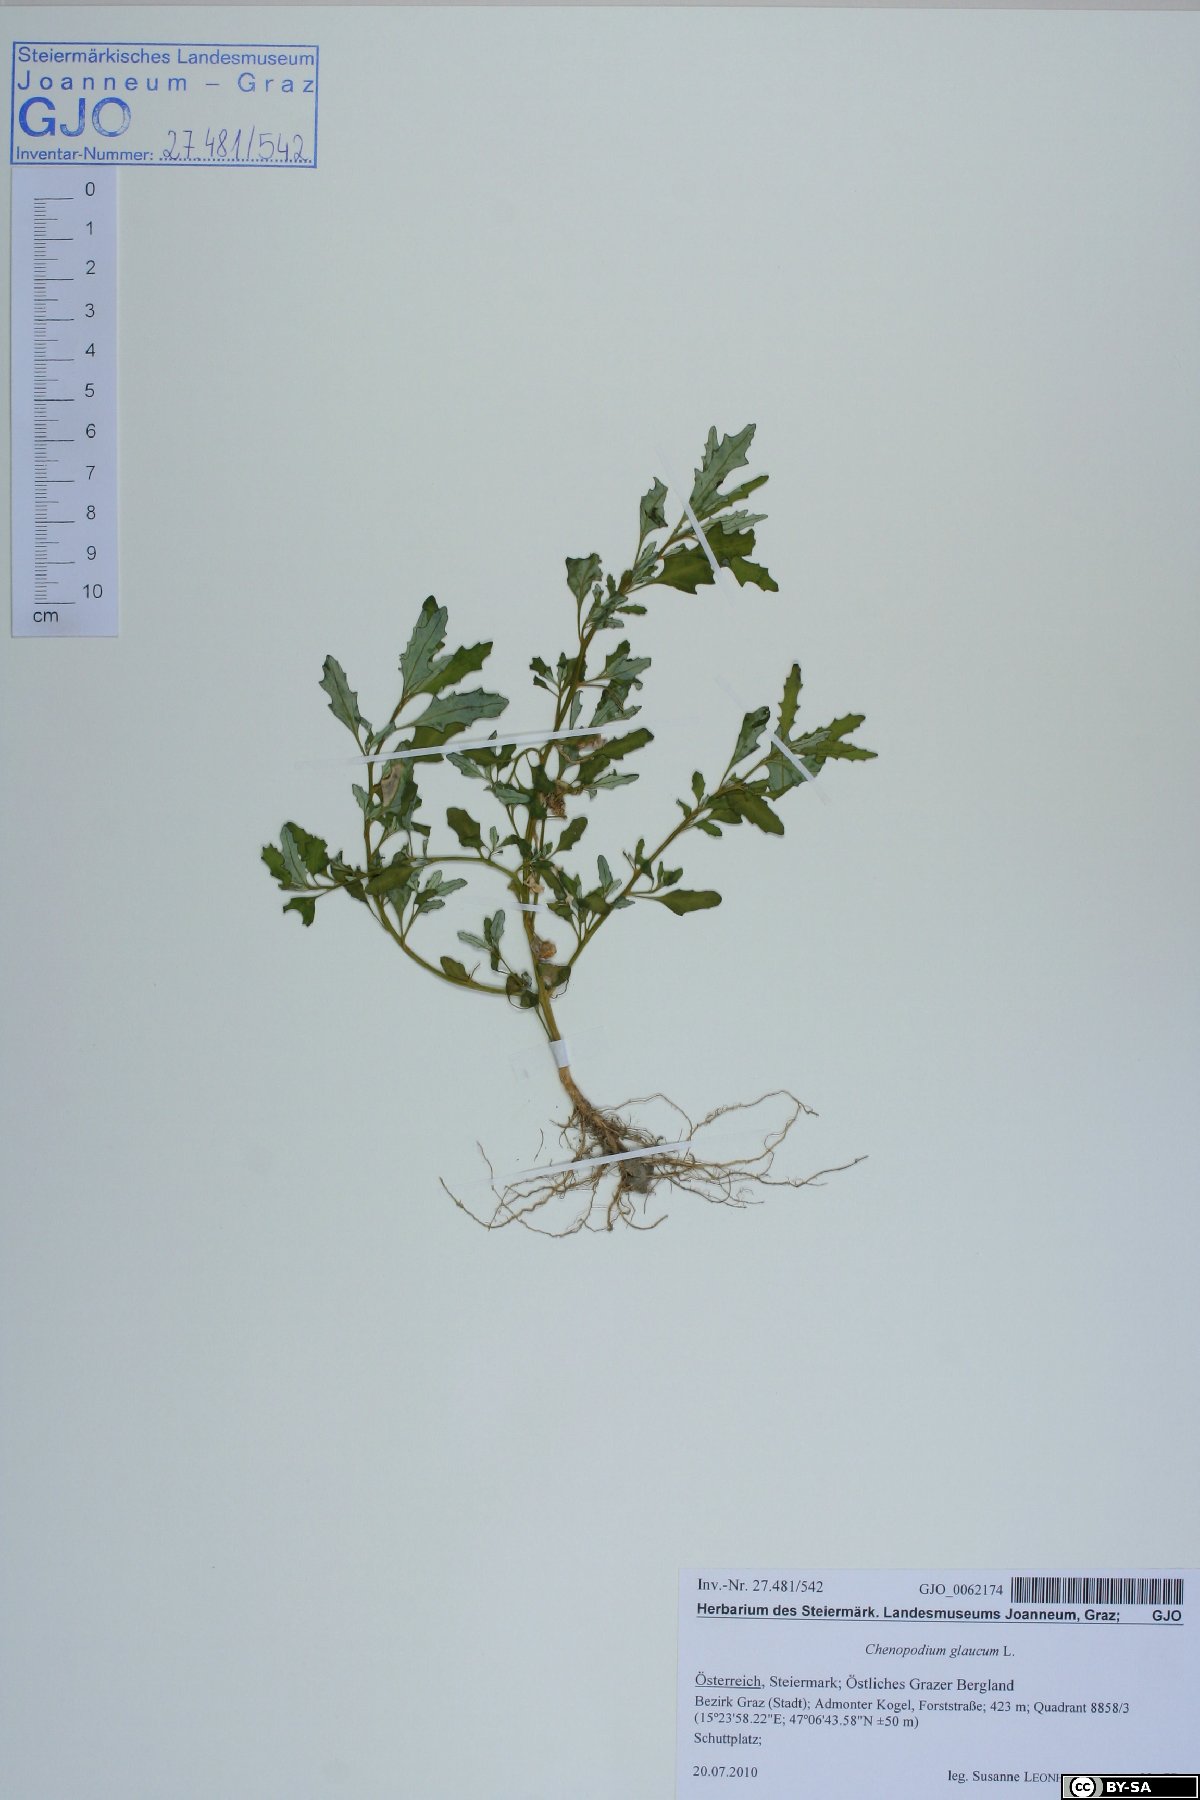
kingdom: Plantae
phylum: Tracheophyta
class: Magnoliopsida
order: Caryophyllales
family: Amaranthaceae
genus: Oxybasis
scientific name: Oxybasis glauca
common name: Glaucous goosefoot
